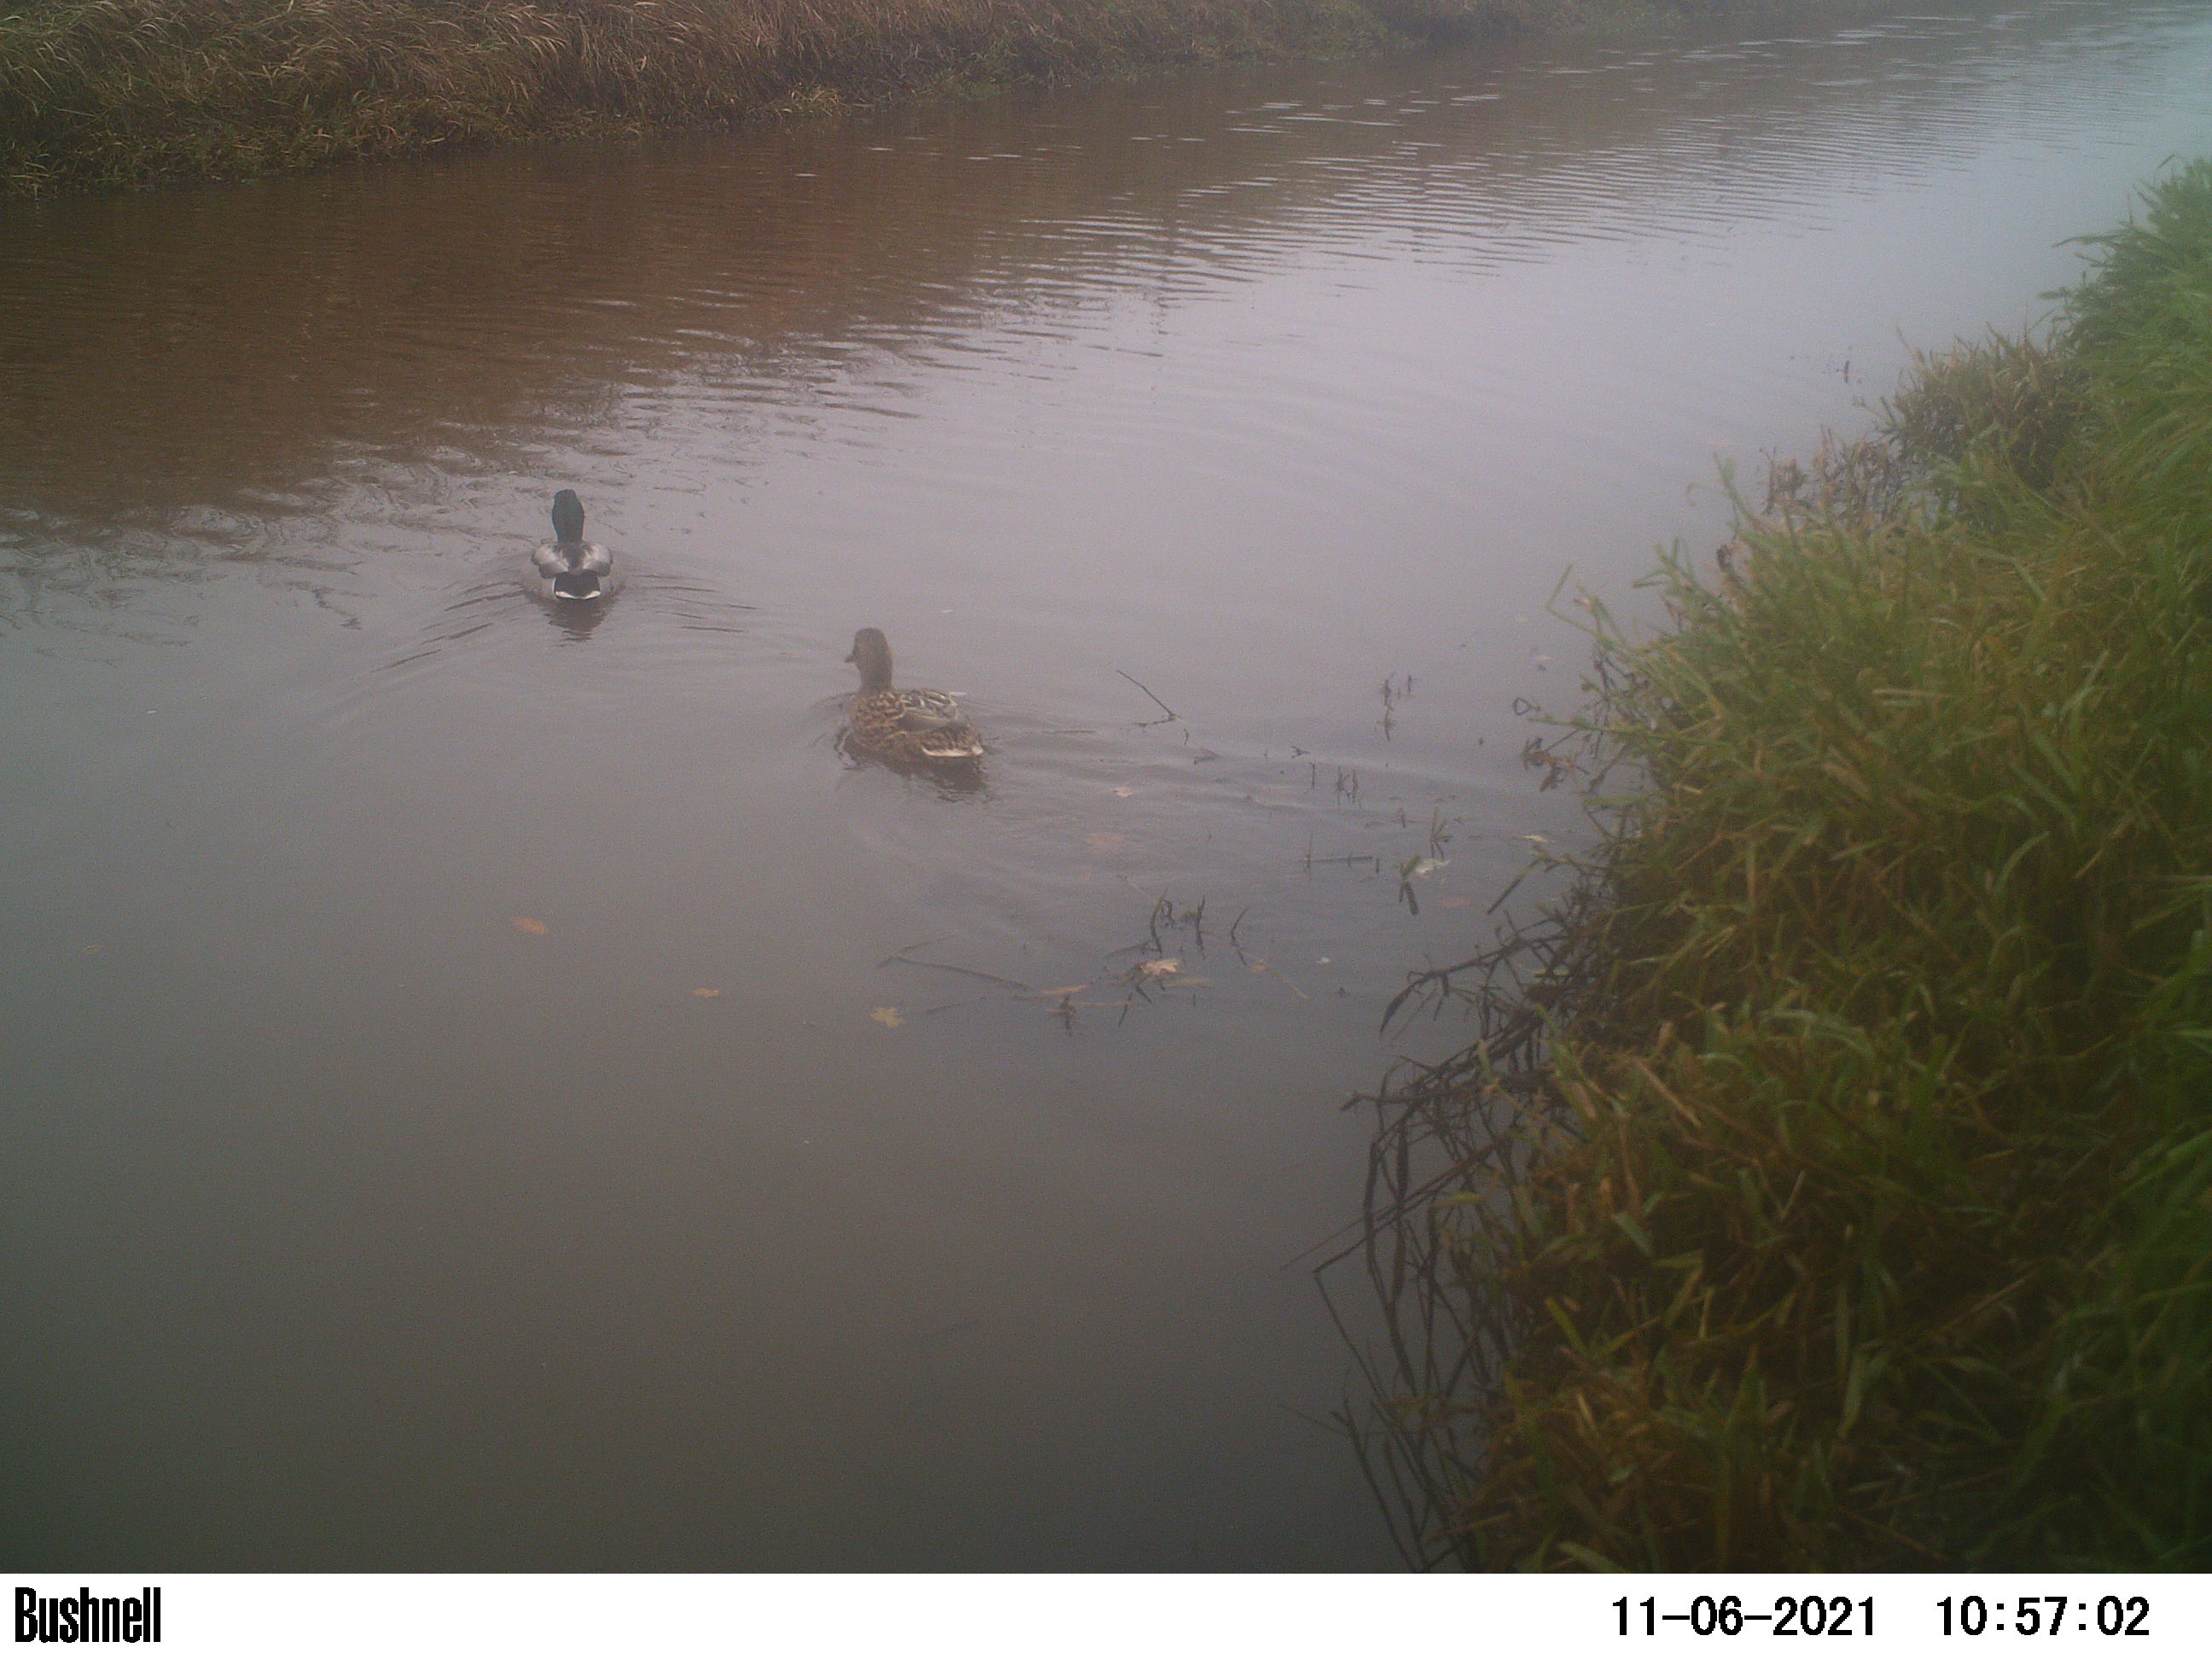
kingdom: Animalia
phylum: Chordata
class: Aves
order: Anseriformes
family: Anatidae
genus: Anas
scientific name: Anas
